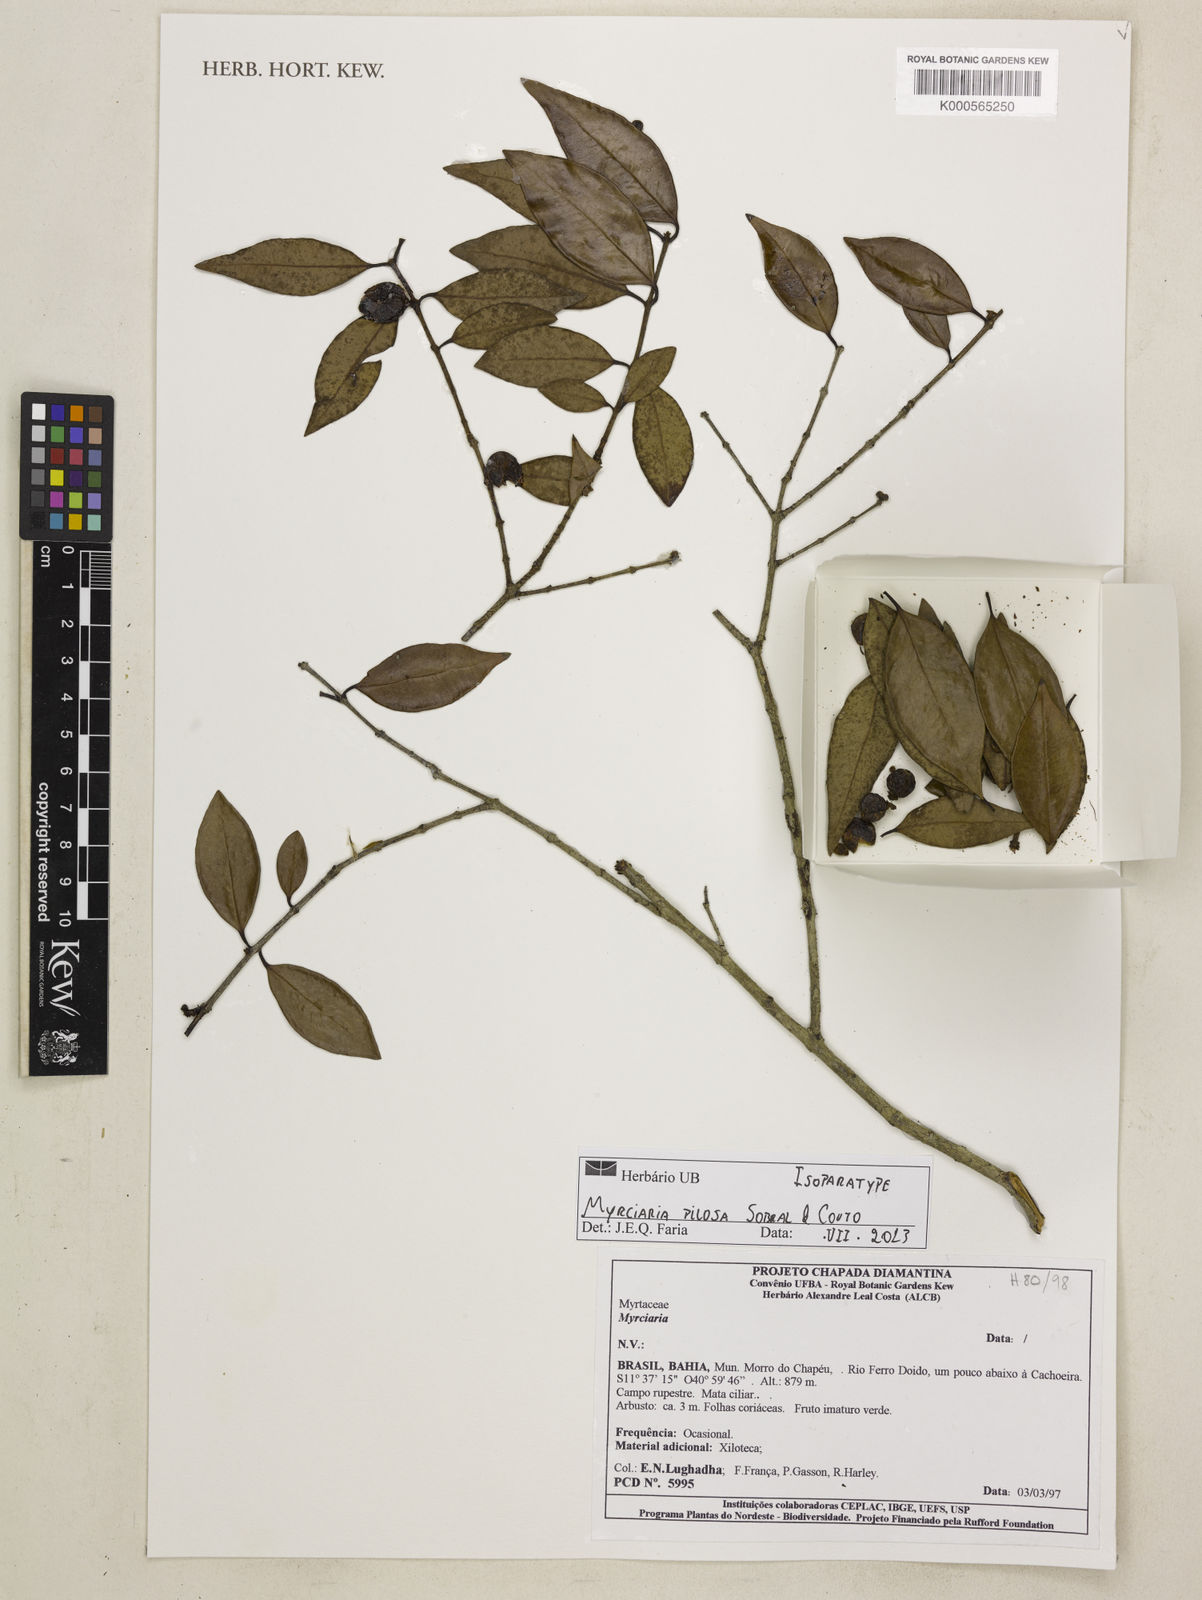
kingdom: Plantae
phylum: Tracheophyta
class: Magnoliopsida
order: Myrtales
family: Myrtaceae
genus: Myrciaria
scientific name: Myrciaria pilosa
